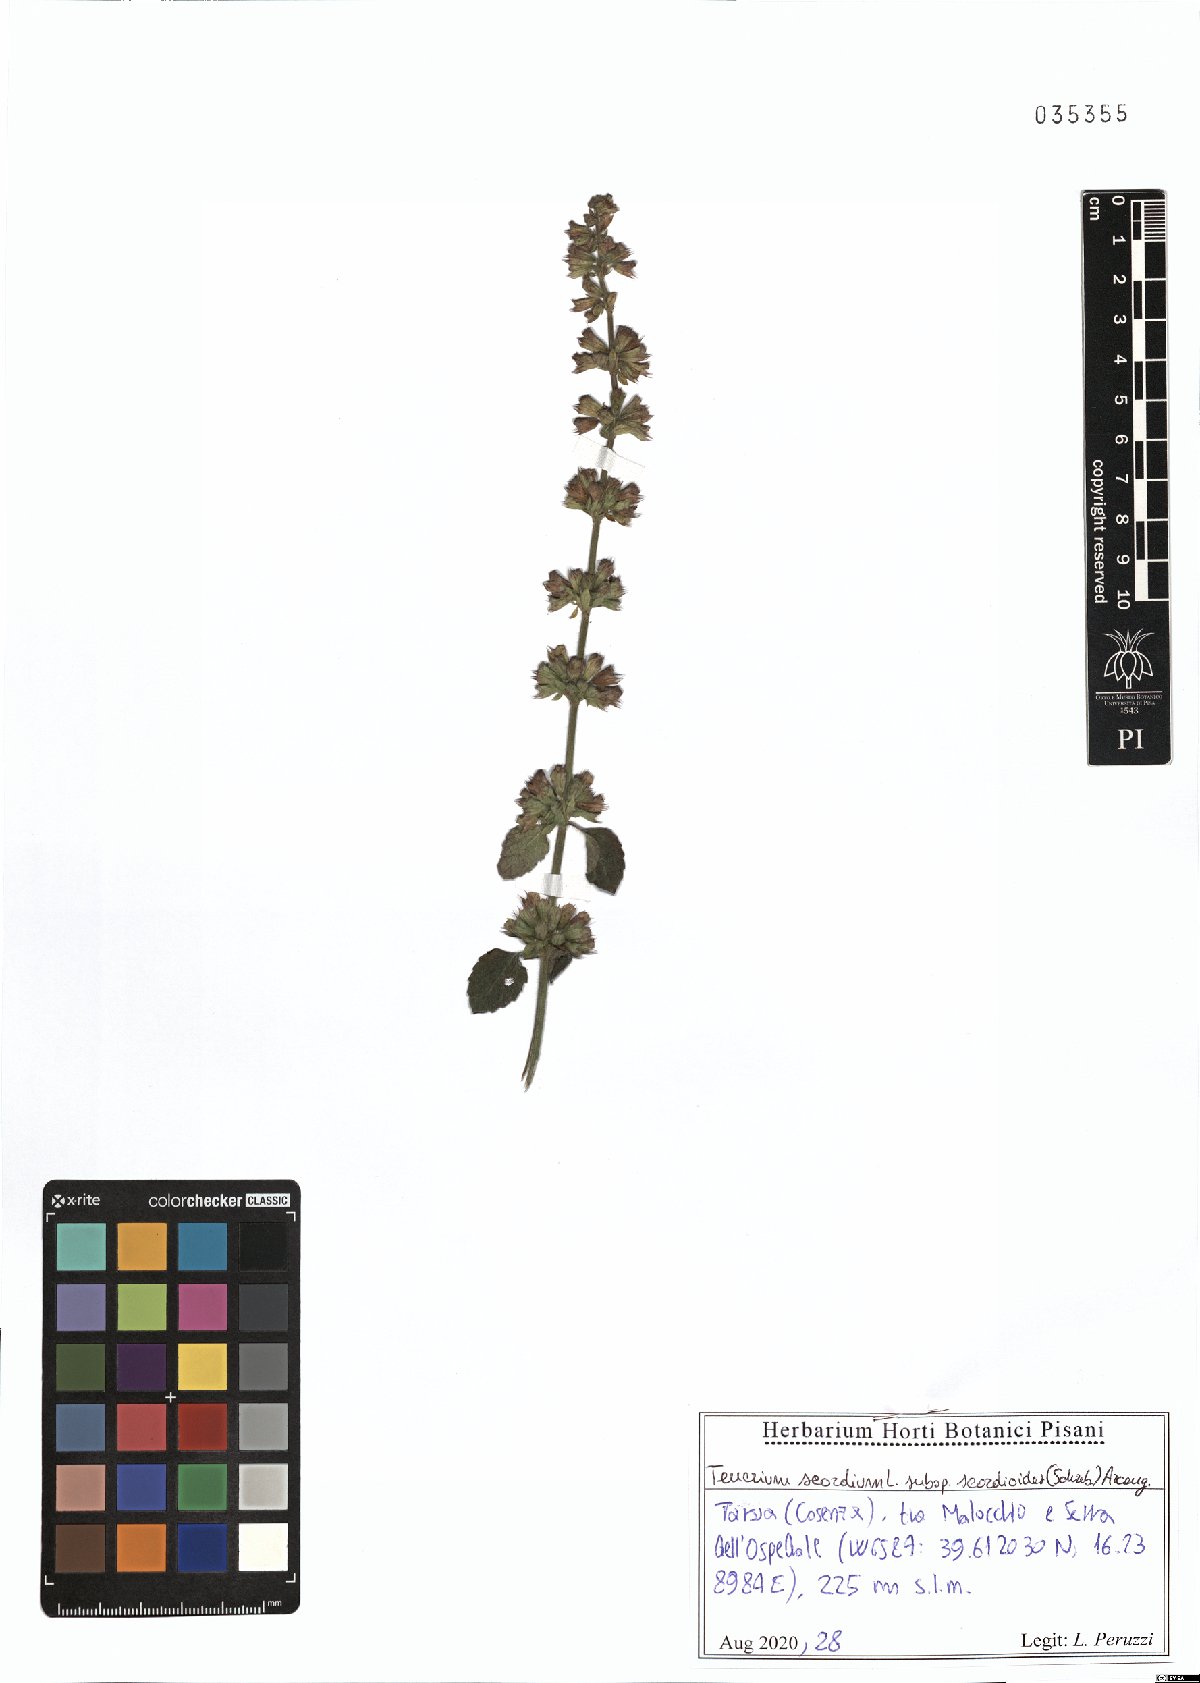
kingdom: Plantae
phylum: Tracheophyta
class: Magnoliopsida
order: Lamiales
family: Lamiaceae
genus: Teucrium
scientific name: Teucrium scordium
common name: Water germander
